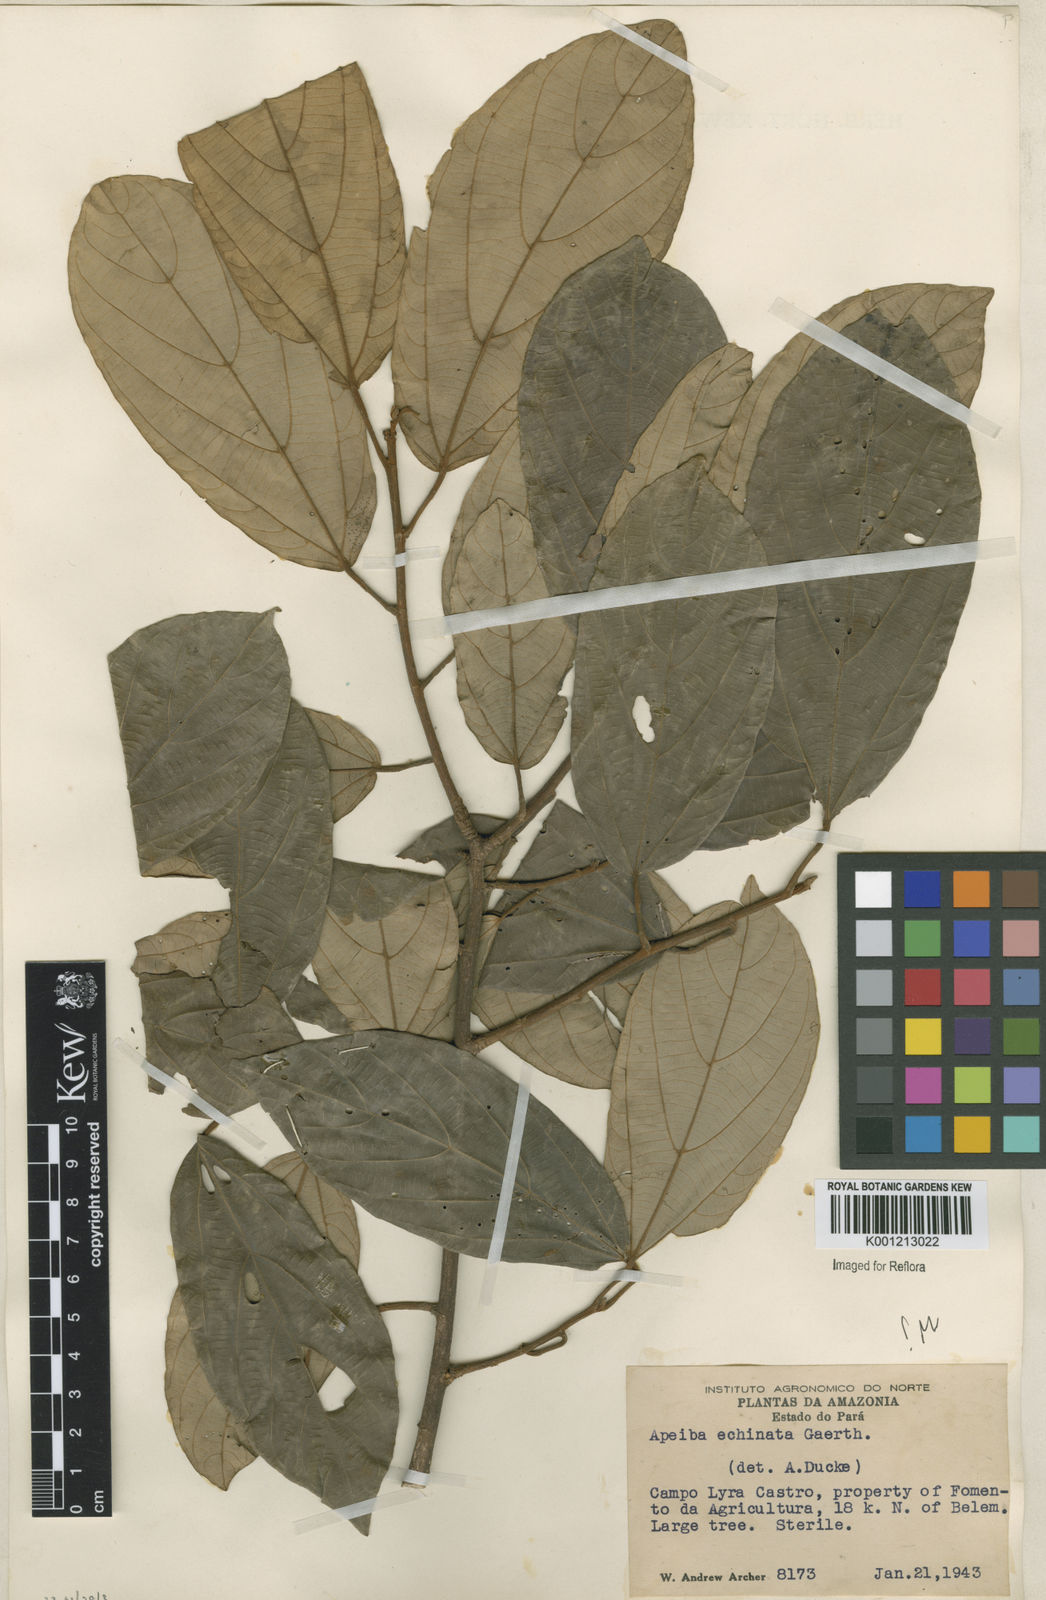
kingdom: Plantae
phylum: Tracheophyta
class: Magnoliopsida
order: Malvales
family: Malvaceae
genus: Apeiba
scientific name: Apeiba
